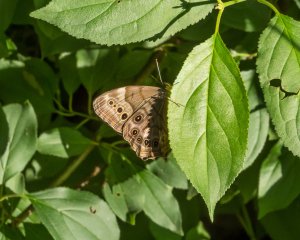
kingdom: Animalia
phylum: Arthropoda
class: Insecta
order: Lepidoptera
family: Nymphalidae
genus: Lethe
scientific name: Lethe anthedon
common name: Northern Pearly-Eye
